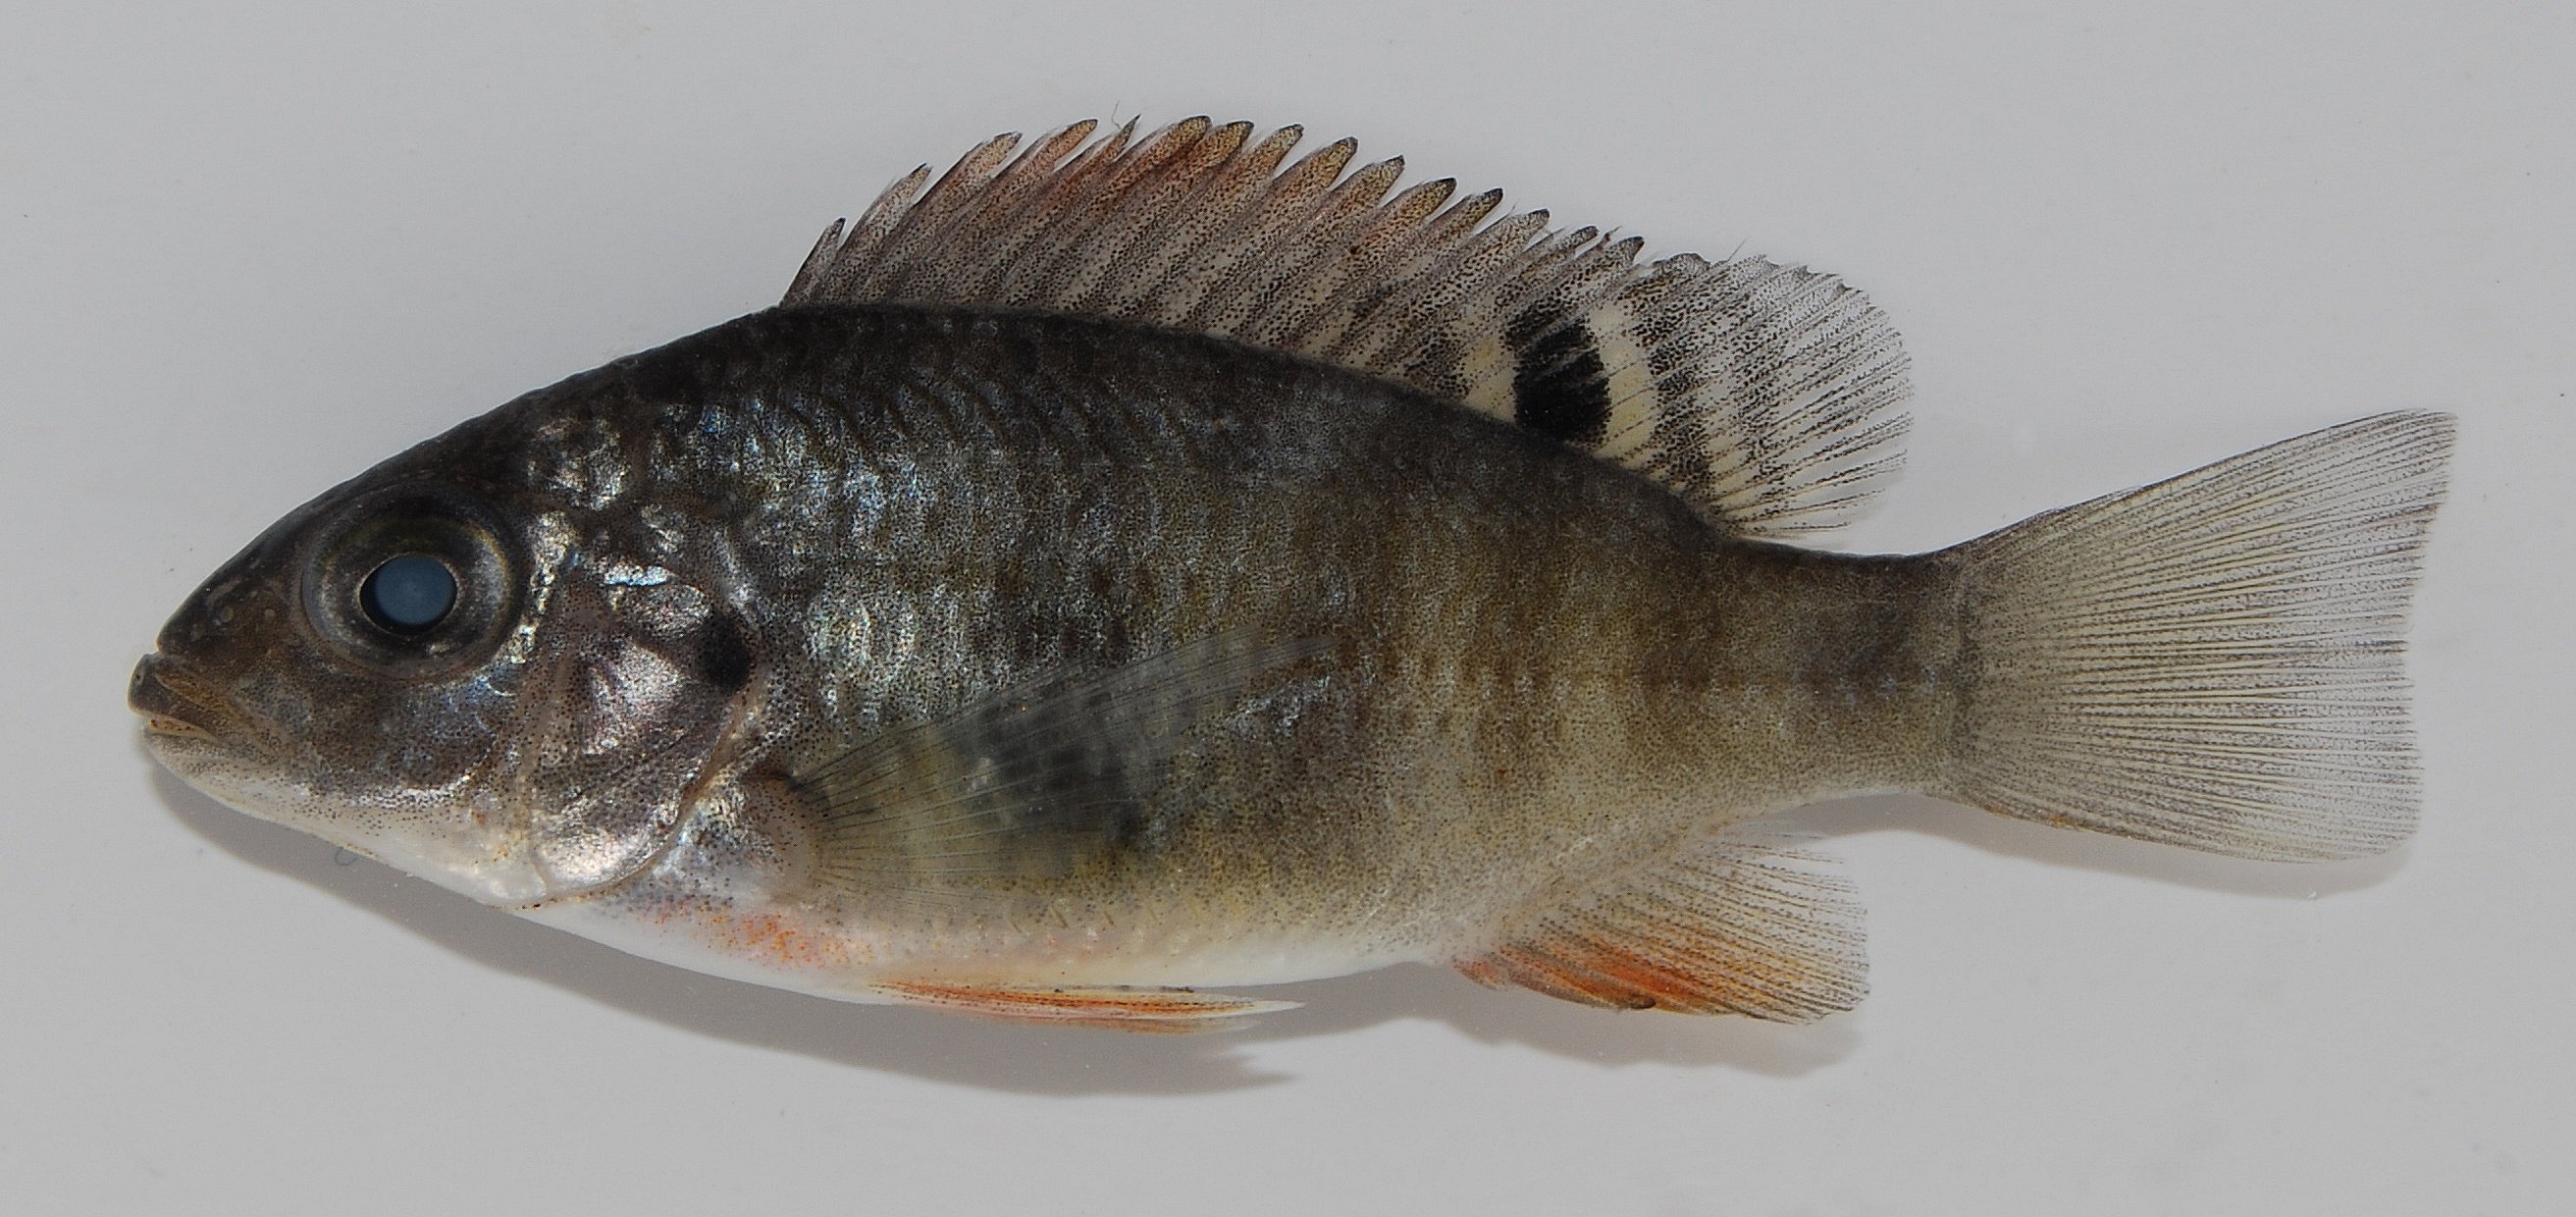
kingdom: Animalia
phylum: Chordata
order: Perciformes
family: Cichlidae
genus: Coptodon
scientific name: Coptodon rendalli
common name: Redbreast tilapia
